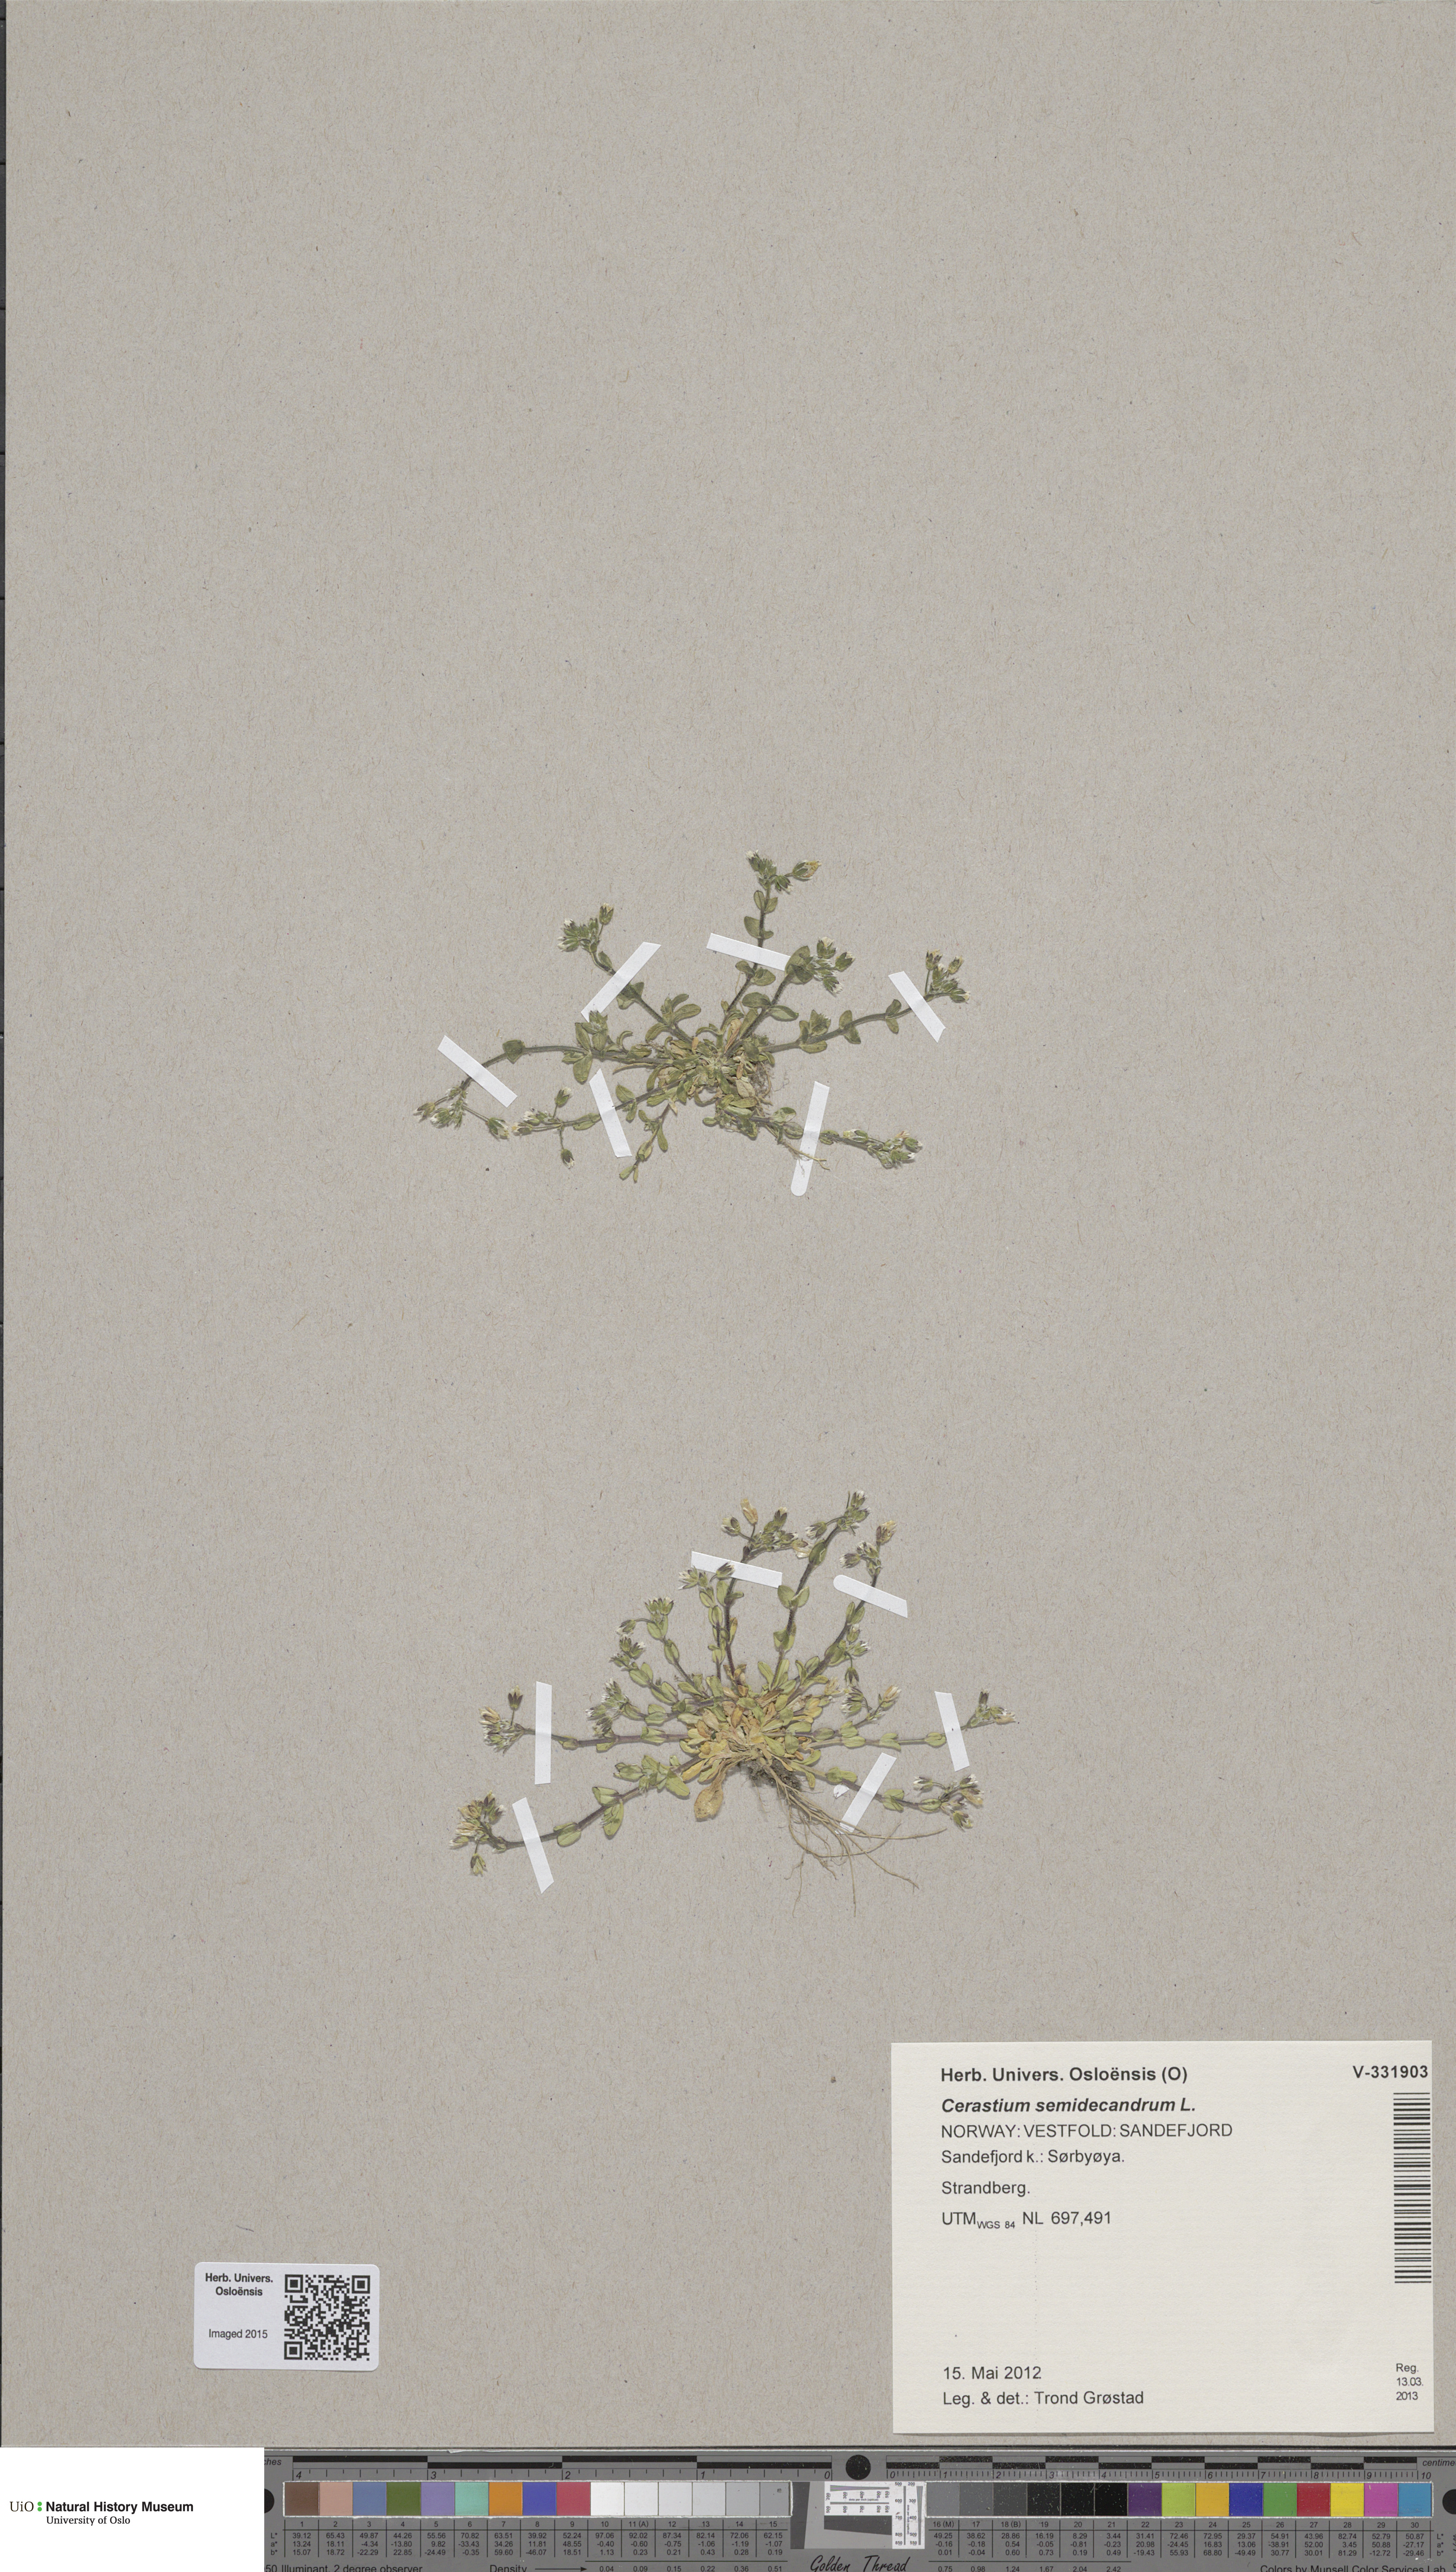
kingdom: Plantae
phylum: Tracheophyta
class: Magnoliopsida
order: Caryophyllales
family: Caryophyllaceae
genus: Cerastium
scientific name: Cerastium semidecandrum
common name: Little mouse-ear
